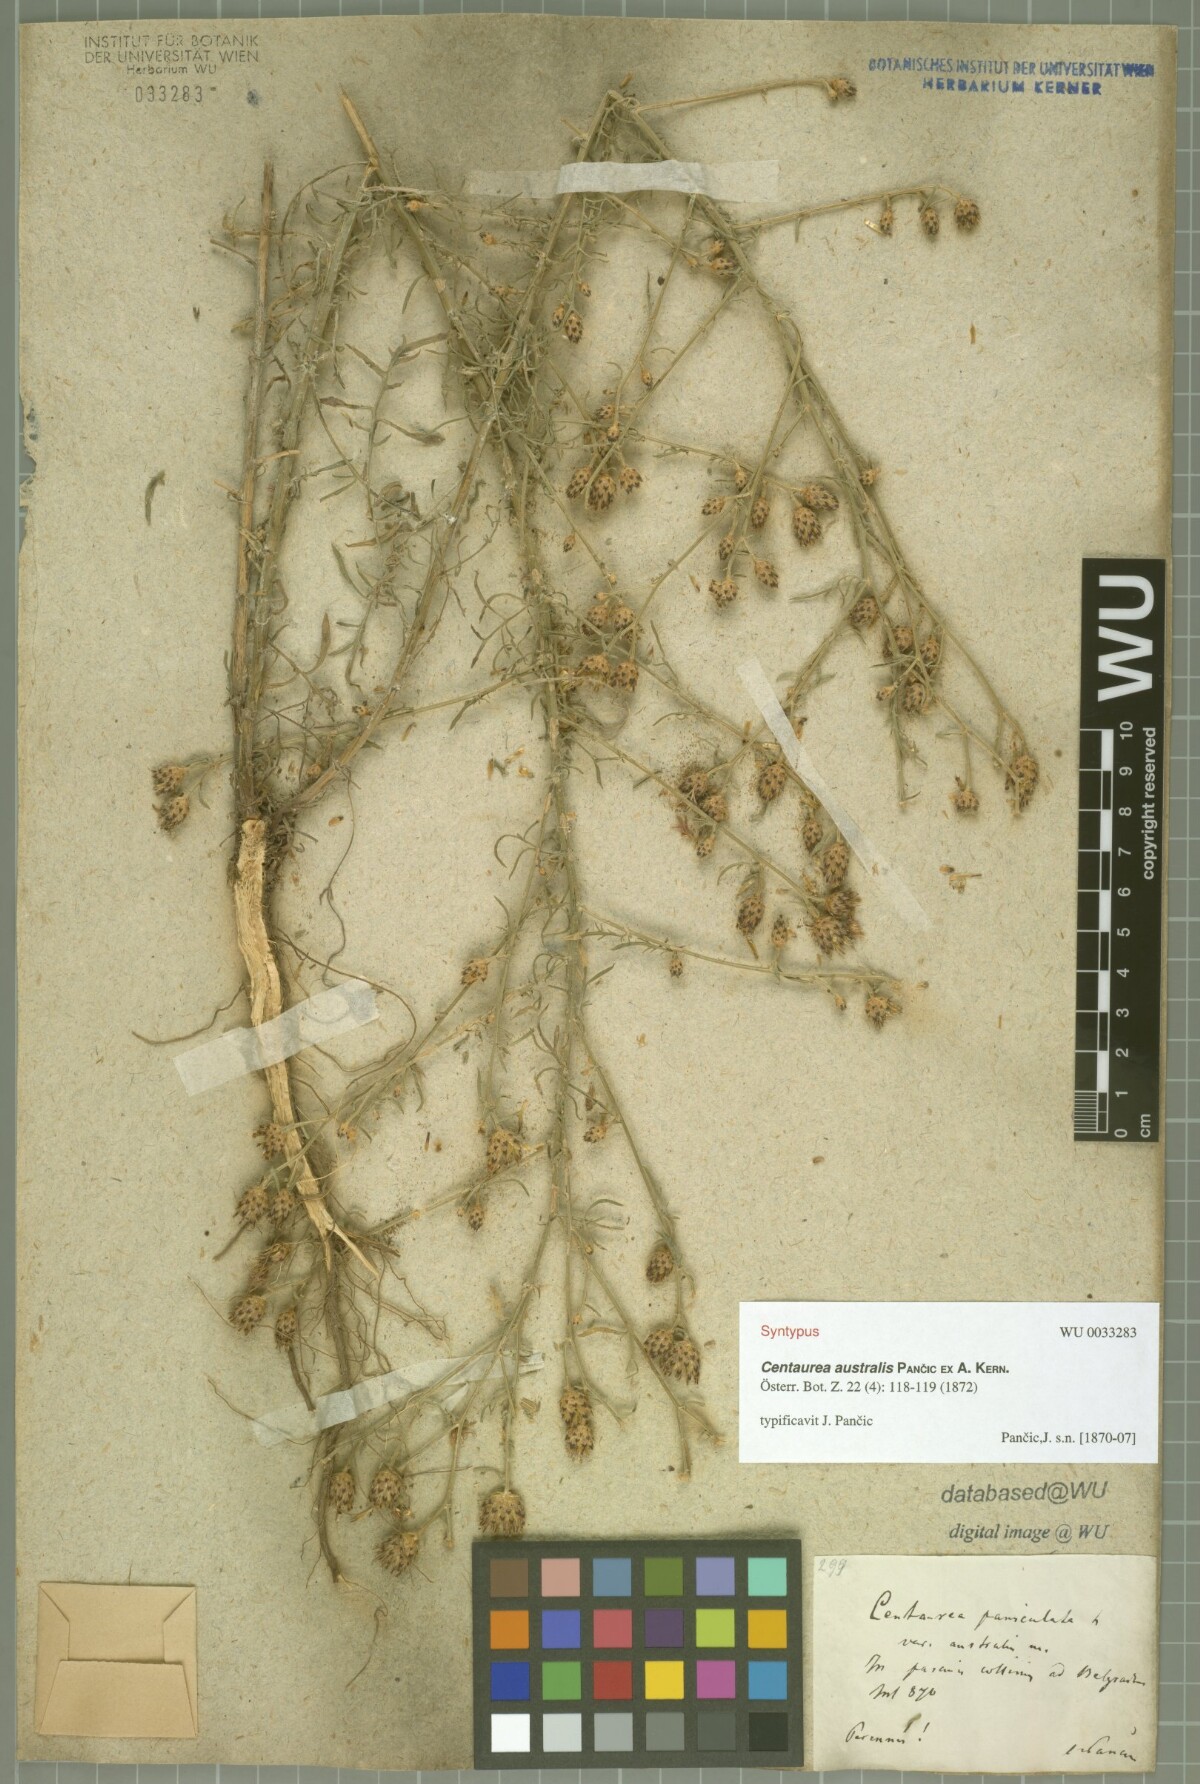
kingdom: Plantae
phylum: Tracheophyta
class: Magnoliopsida
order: Asterales
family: Asteraceae
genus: Centaurea
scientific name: Centaurea australis
